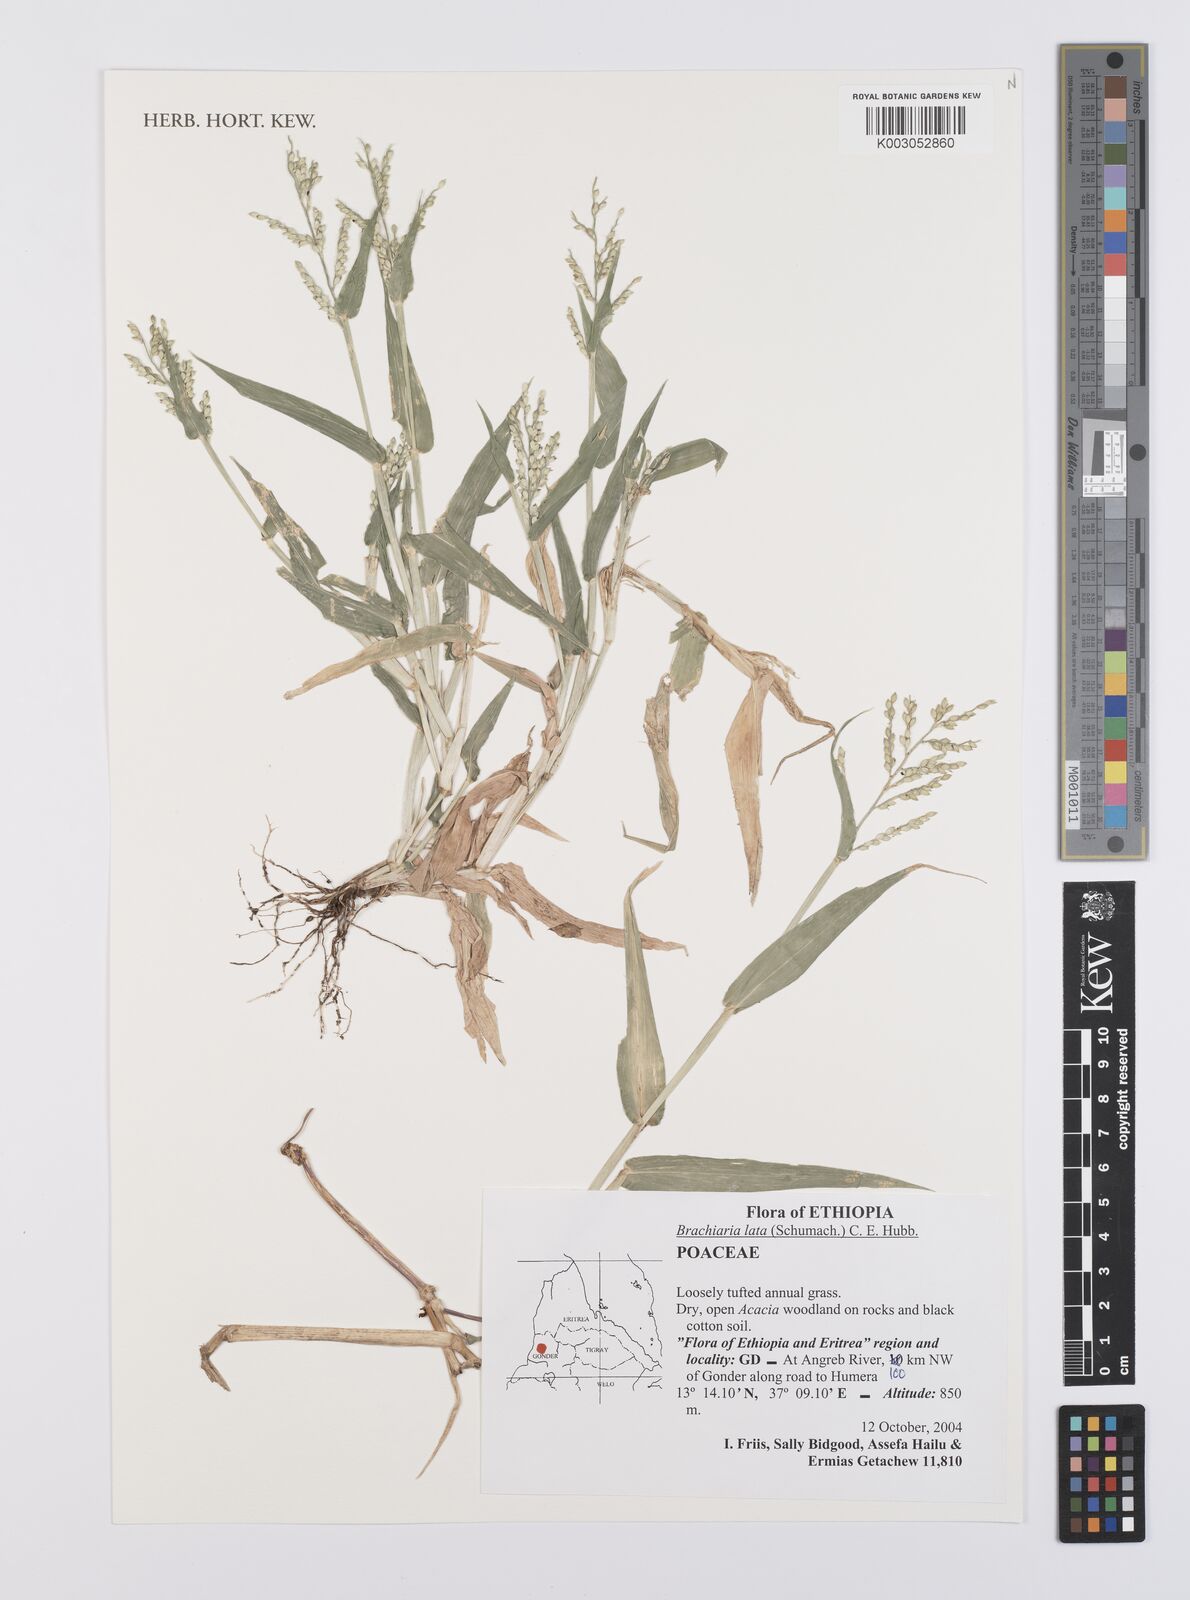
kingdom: Plantae
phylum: Tracheophyta
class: Liliopsida
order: Poales
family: Poaceae
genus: Urochloa
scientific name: Urochloa lata
